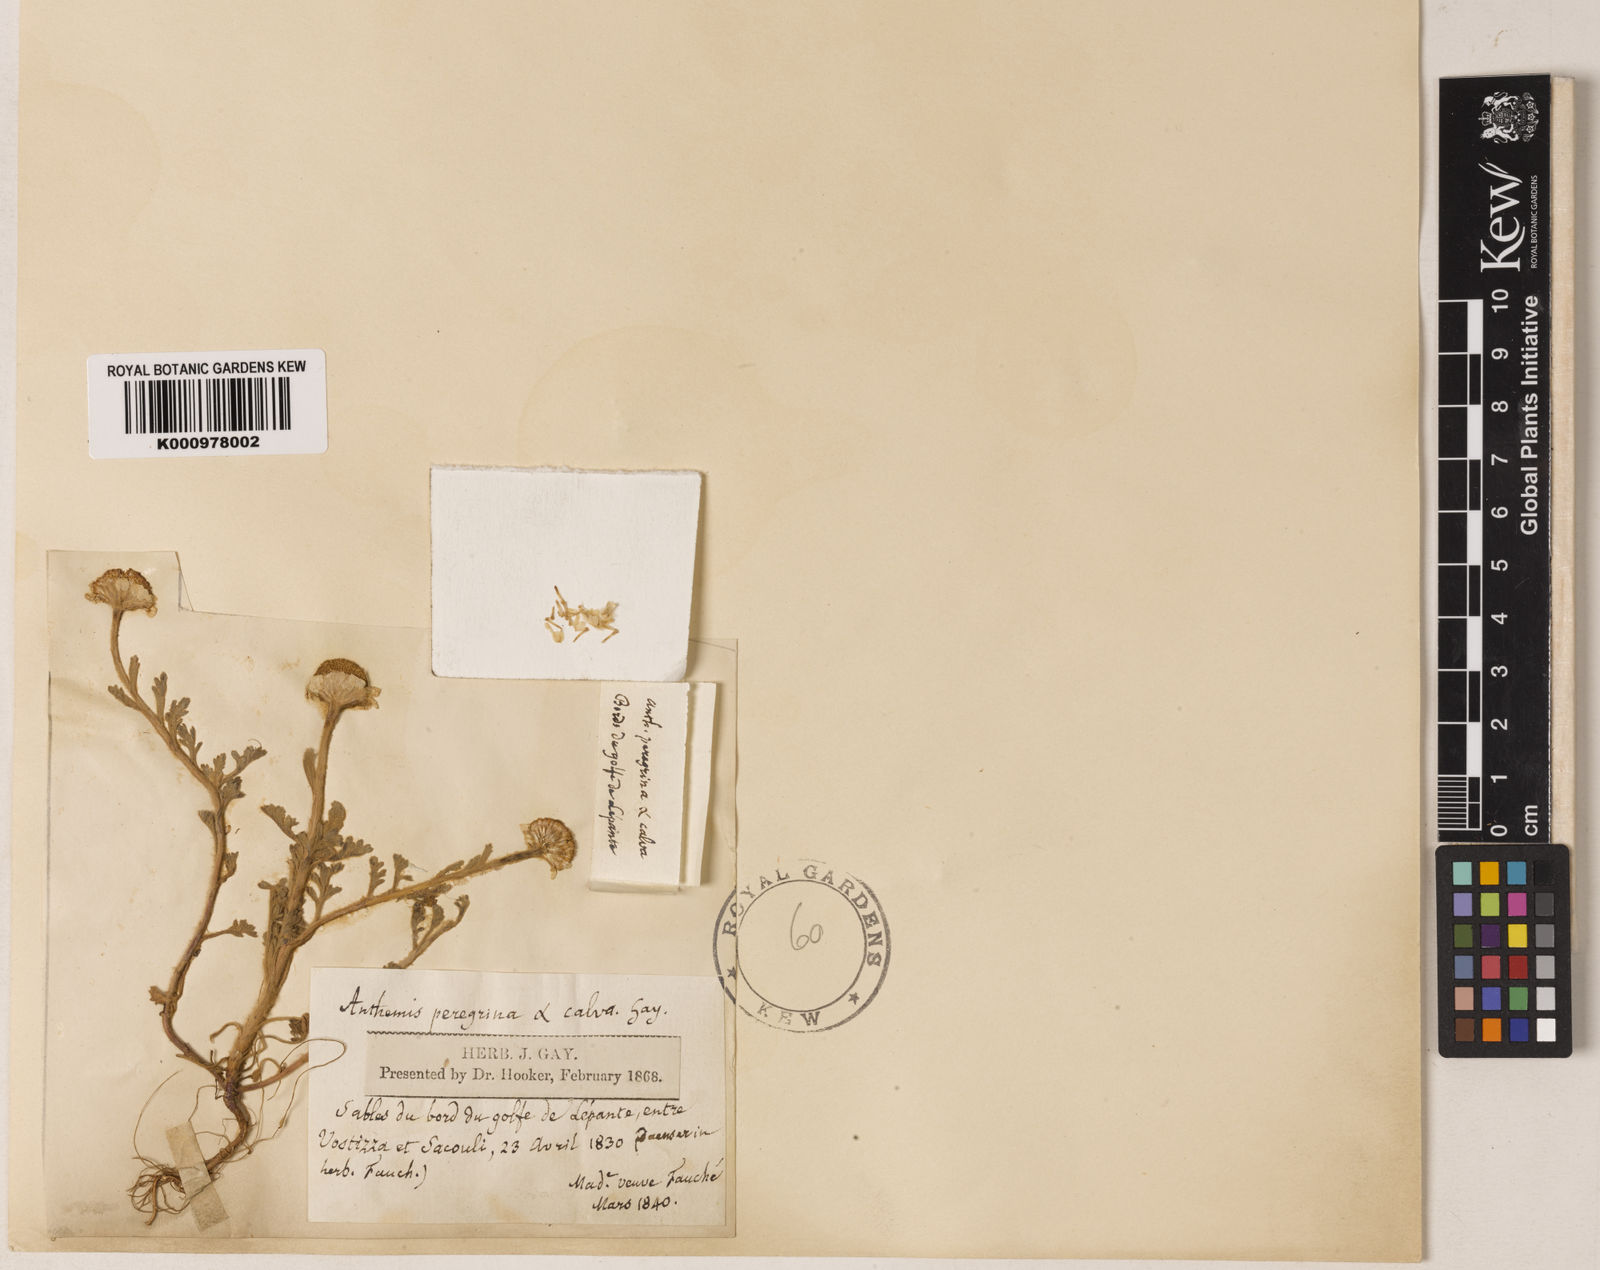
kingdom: Plantae
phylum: Tracheophyta
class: Magnoliopsida
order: Asterales
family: Asteraceae
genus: Anthemis
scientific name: Anthemis tomentosa
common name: Woolly chamomile
